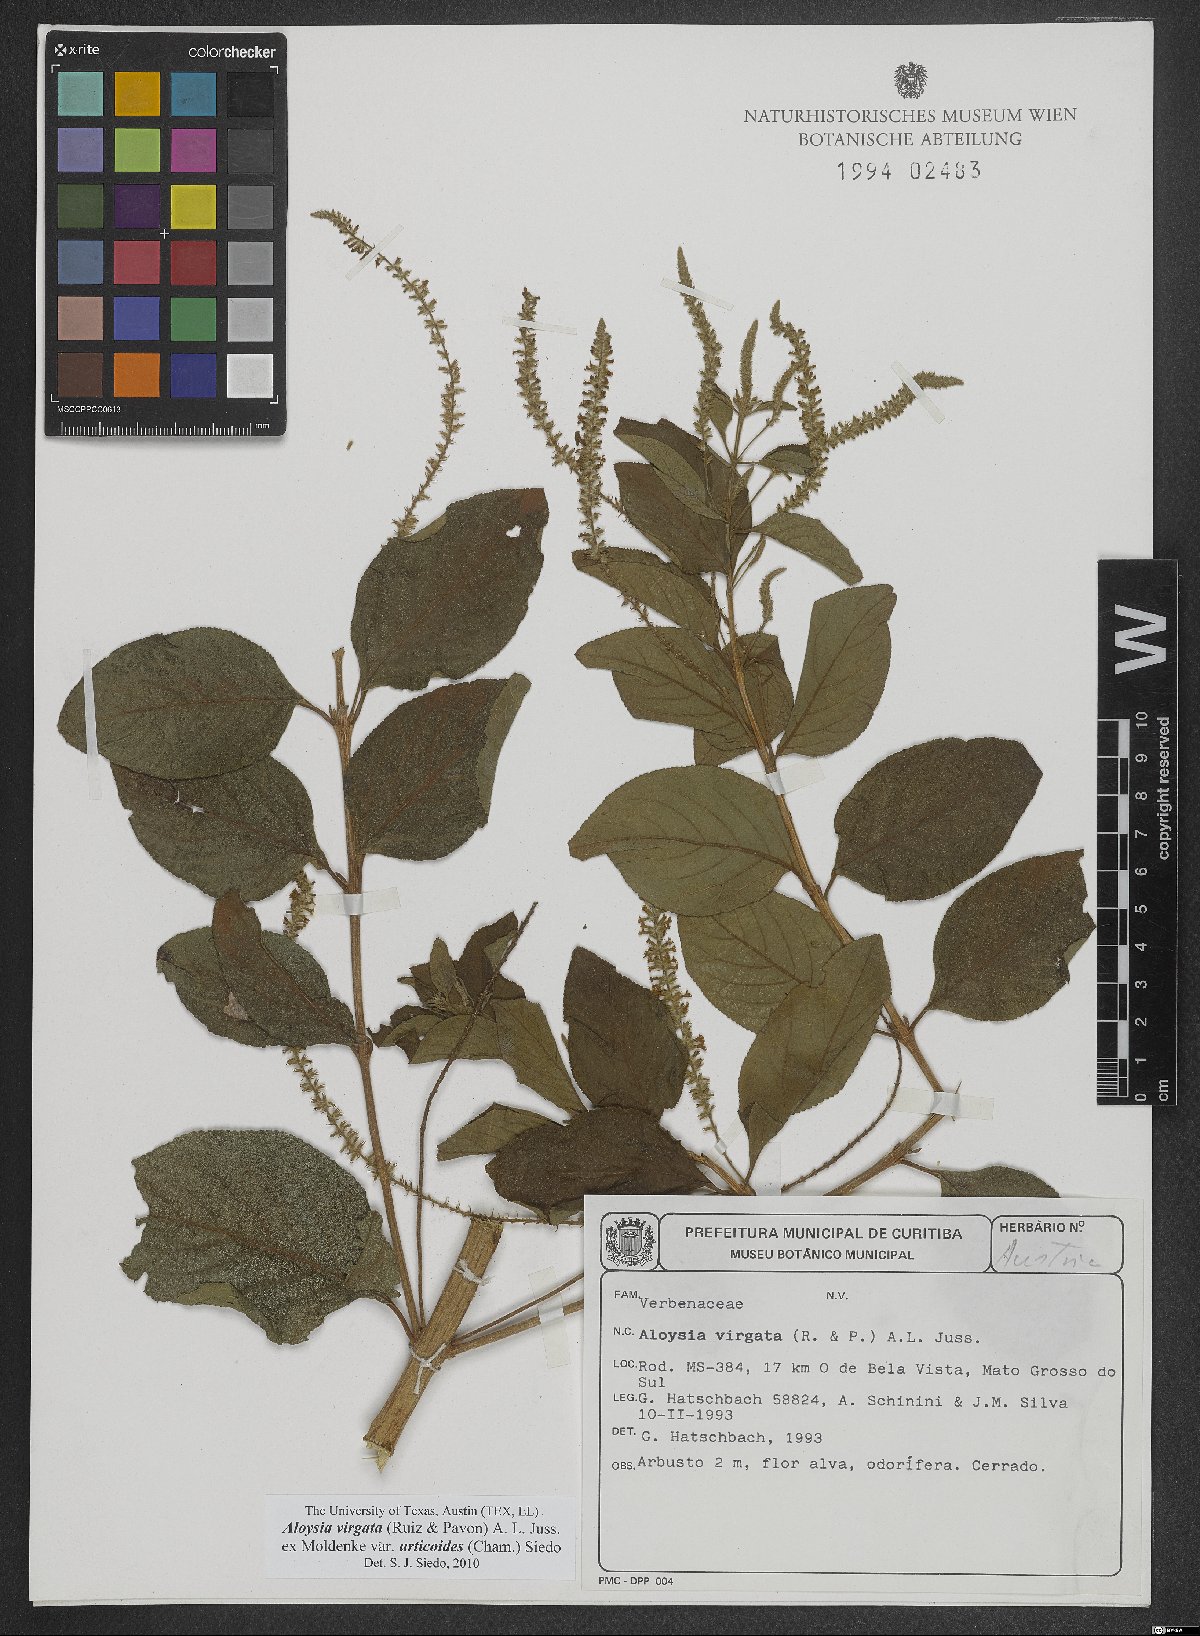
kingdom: Plantae
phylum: Tracheophyta
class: Magnoliopsida
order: Lamiales
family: Verbenaceae
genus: Aloysia
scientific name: Aloysia virgata
